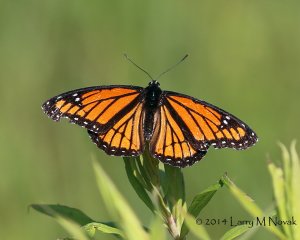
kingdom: Animalia
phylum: Arthropoda
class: Insecta
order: Lepidoptera
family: Nymphalidae
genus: Limenitis
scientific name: Limenitis archippus
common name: Viceroy
